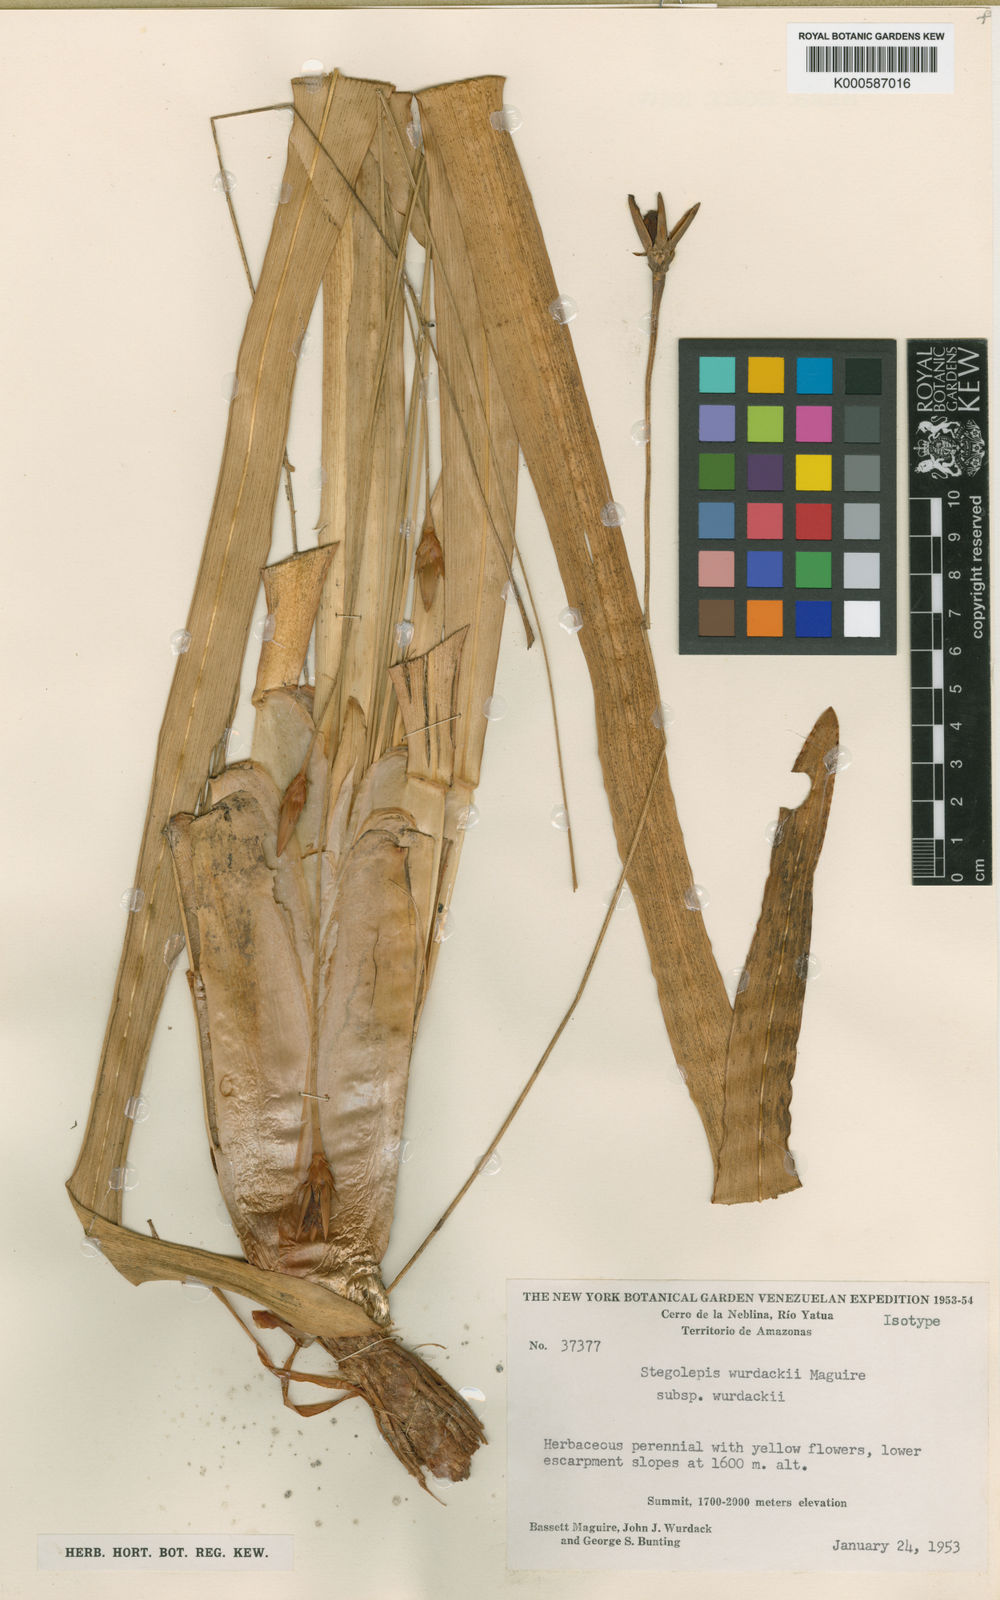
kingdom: Plantae
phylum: Tracheophyta
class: Liliopsida
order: Poales
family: Rapateaceae
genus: Stegolepis
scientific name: Stegolepis wurdackii
